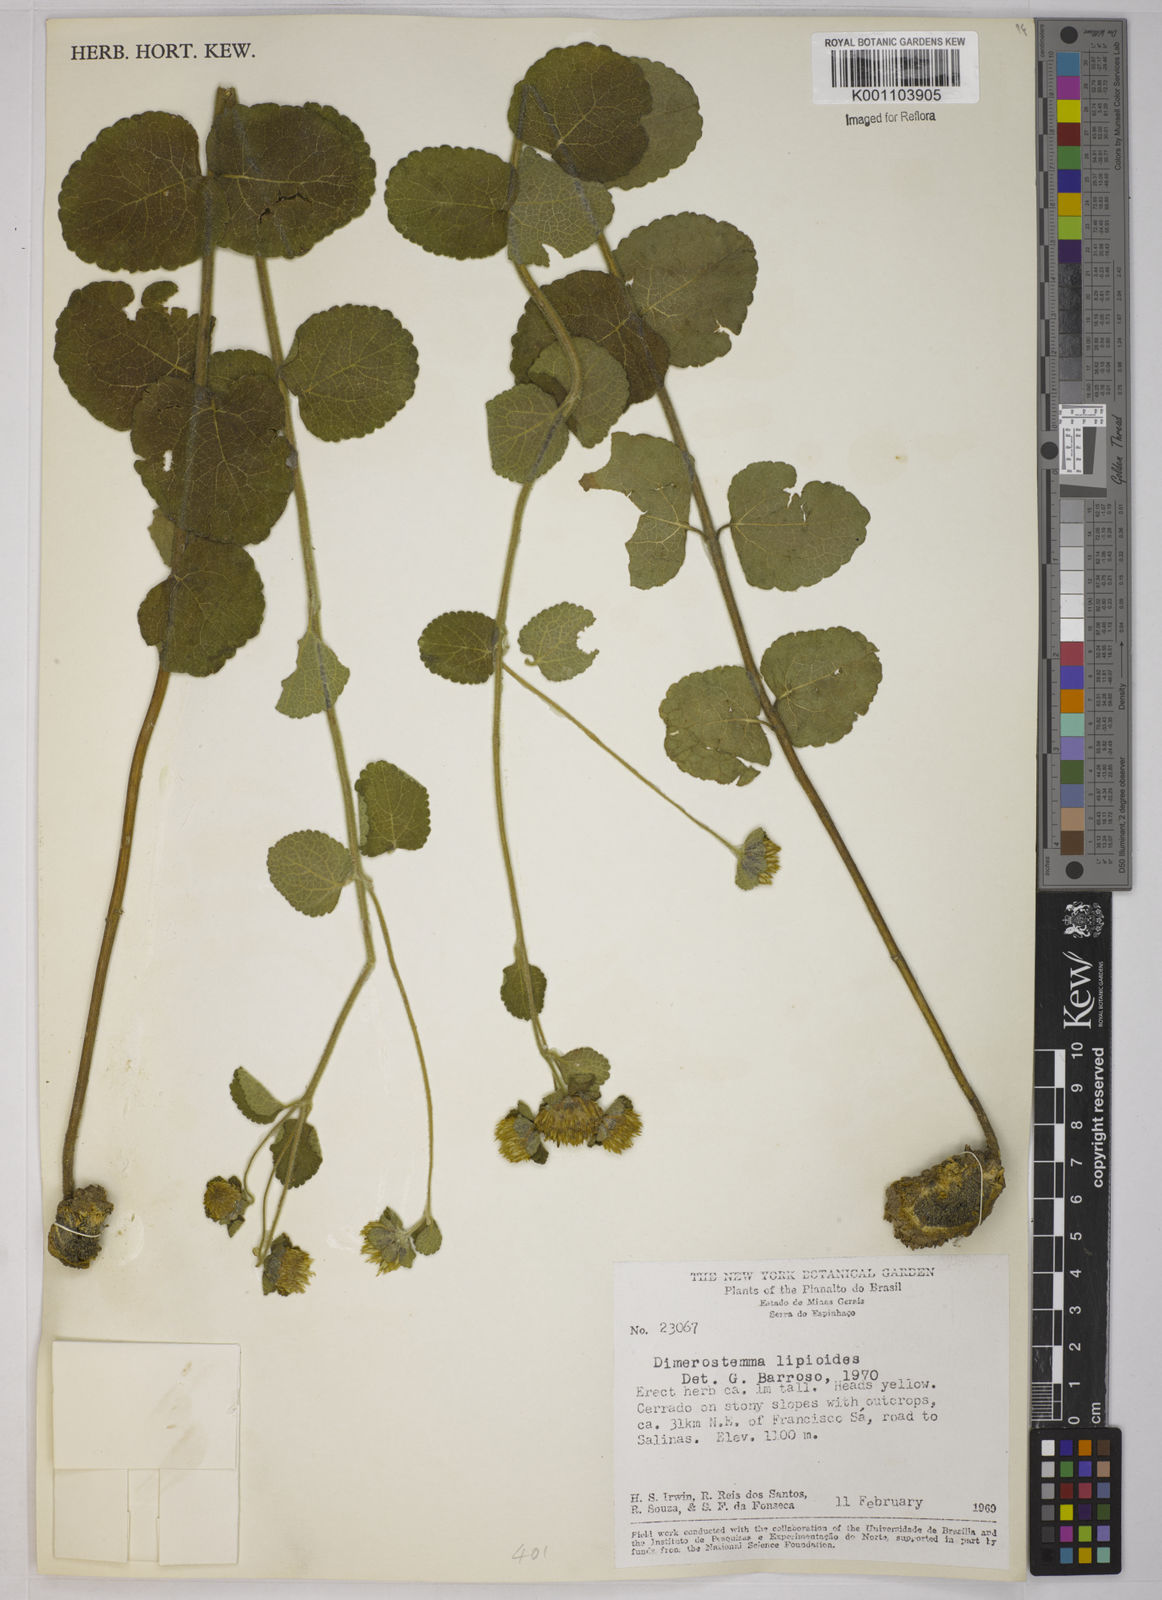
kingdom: Plantae
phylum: Tracheophyta
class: Magnoliopsida
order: Asterales
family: Asteraceae
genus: Dimerostemma
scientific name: Dimerostemma brasilianum
